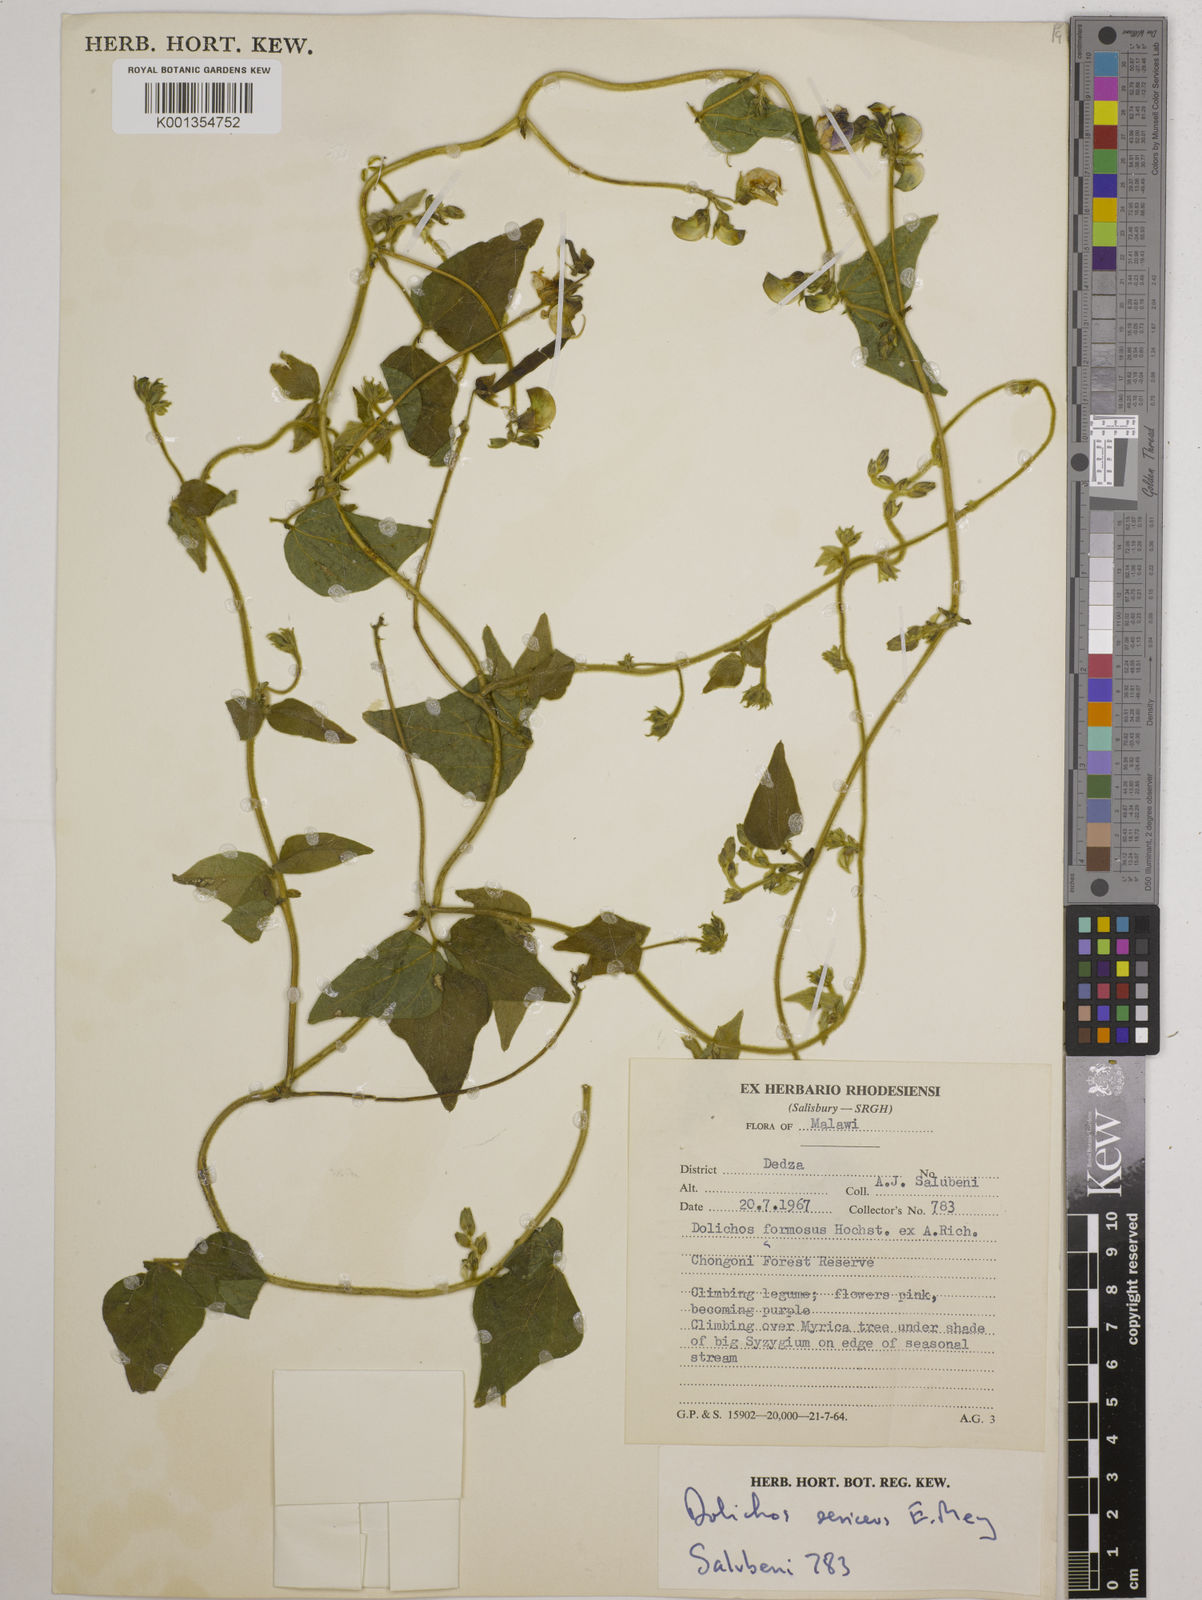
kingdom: Plantae
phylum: Tracheophyta
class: Magnoliopsida
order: Fabales
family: Fabaceae
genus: Dolichos
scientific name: Dolichos
